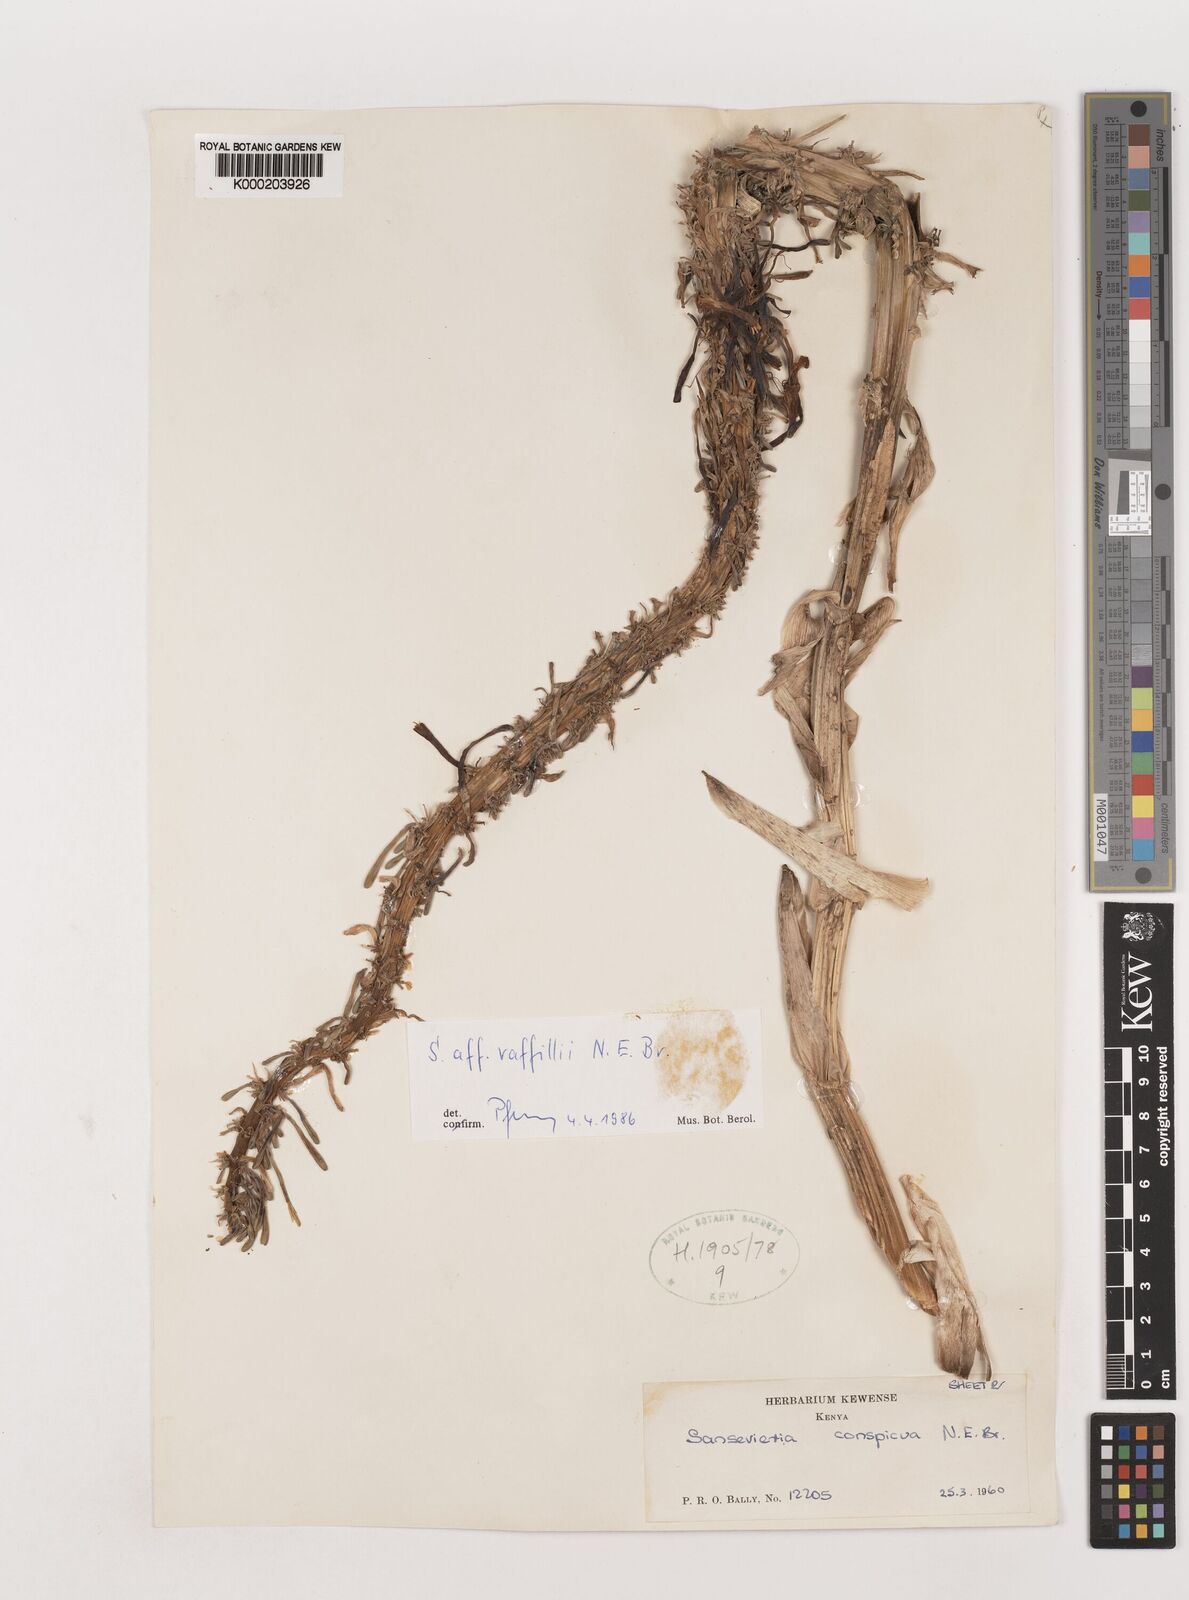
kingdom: Plantae
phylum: Tracheophyta
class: Liliopsida
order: Asparagales
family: Asparagaceae
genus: Dracaena
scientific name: Dracaena raffillii
